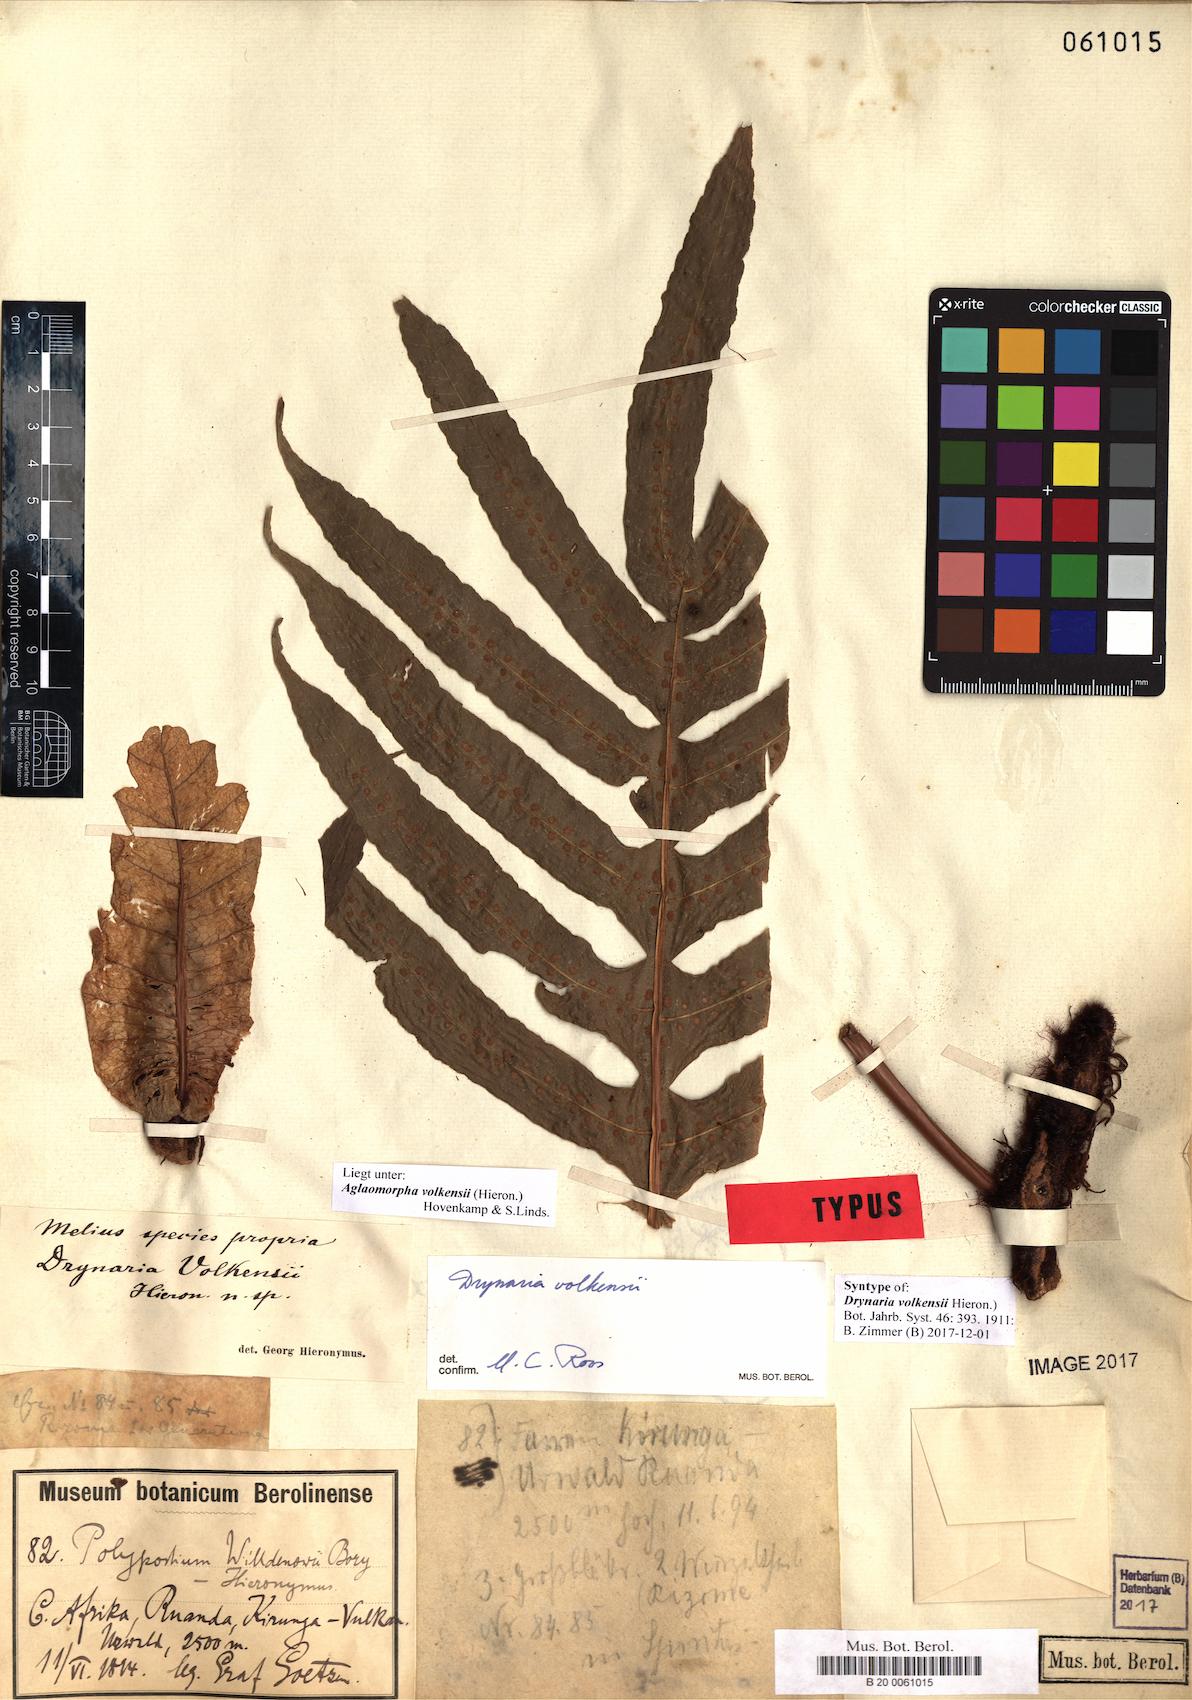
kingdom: Plantae
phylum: Tracheophyta
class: Polypodiopsida
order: Polypodiales
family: Polypodiaceae
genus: Drynaria
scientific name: Drynaria volkensii
